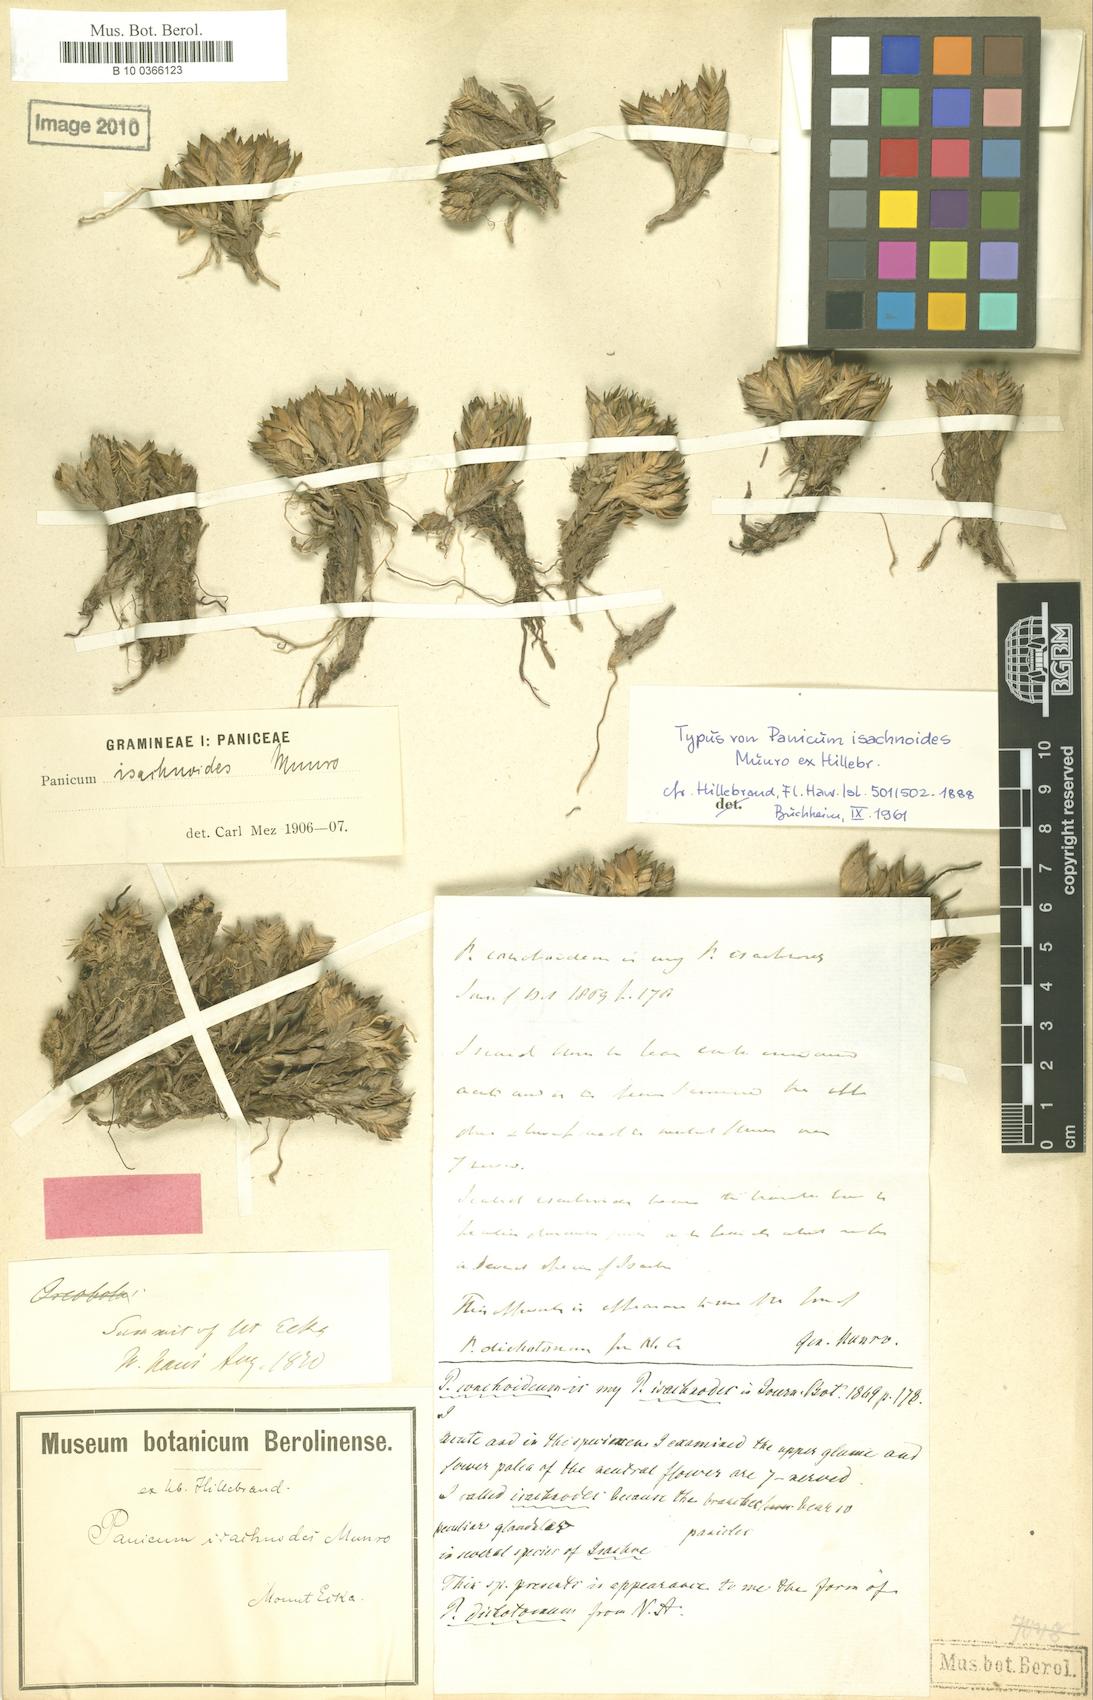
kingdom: Plantae
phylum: Tracheophyta
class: Liliopsida
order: Poales
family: Poaceae
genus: Dichanthelium
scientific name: Dichanthelium isachnoides
